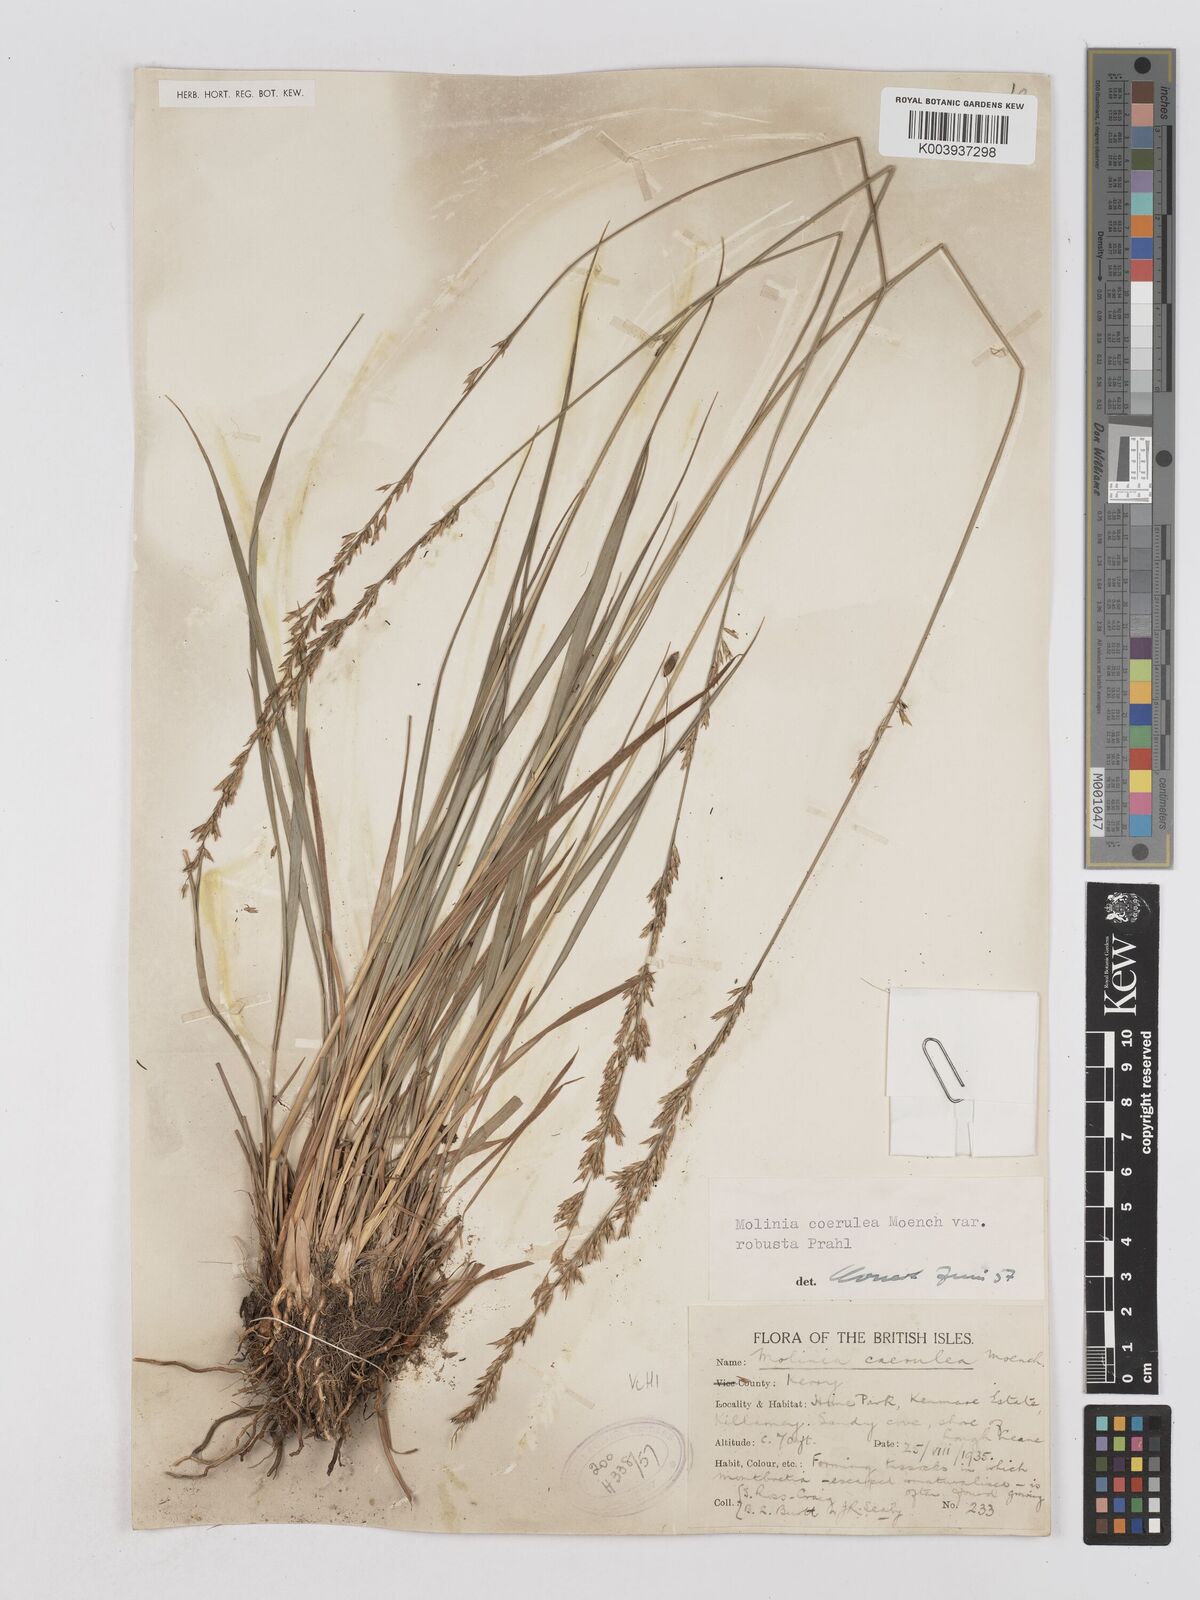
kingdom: Plantae
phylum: Tracheophyta
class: Liliopsida
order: Poales
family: Poaceae
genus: Molinia
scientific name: Molinia caerulea
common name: Purple moor-grass
